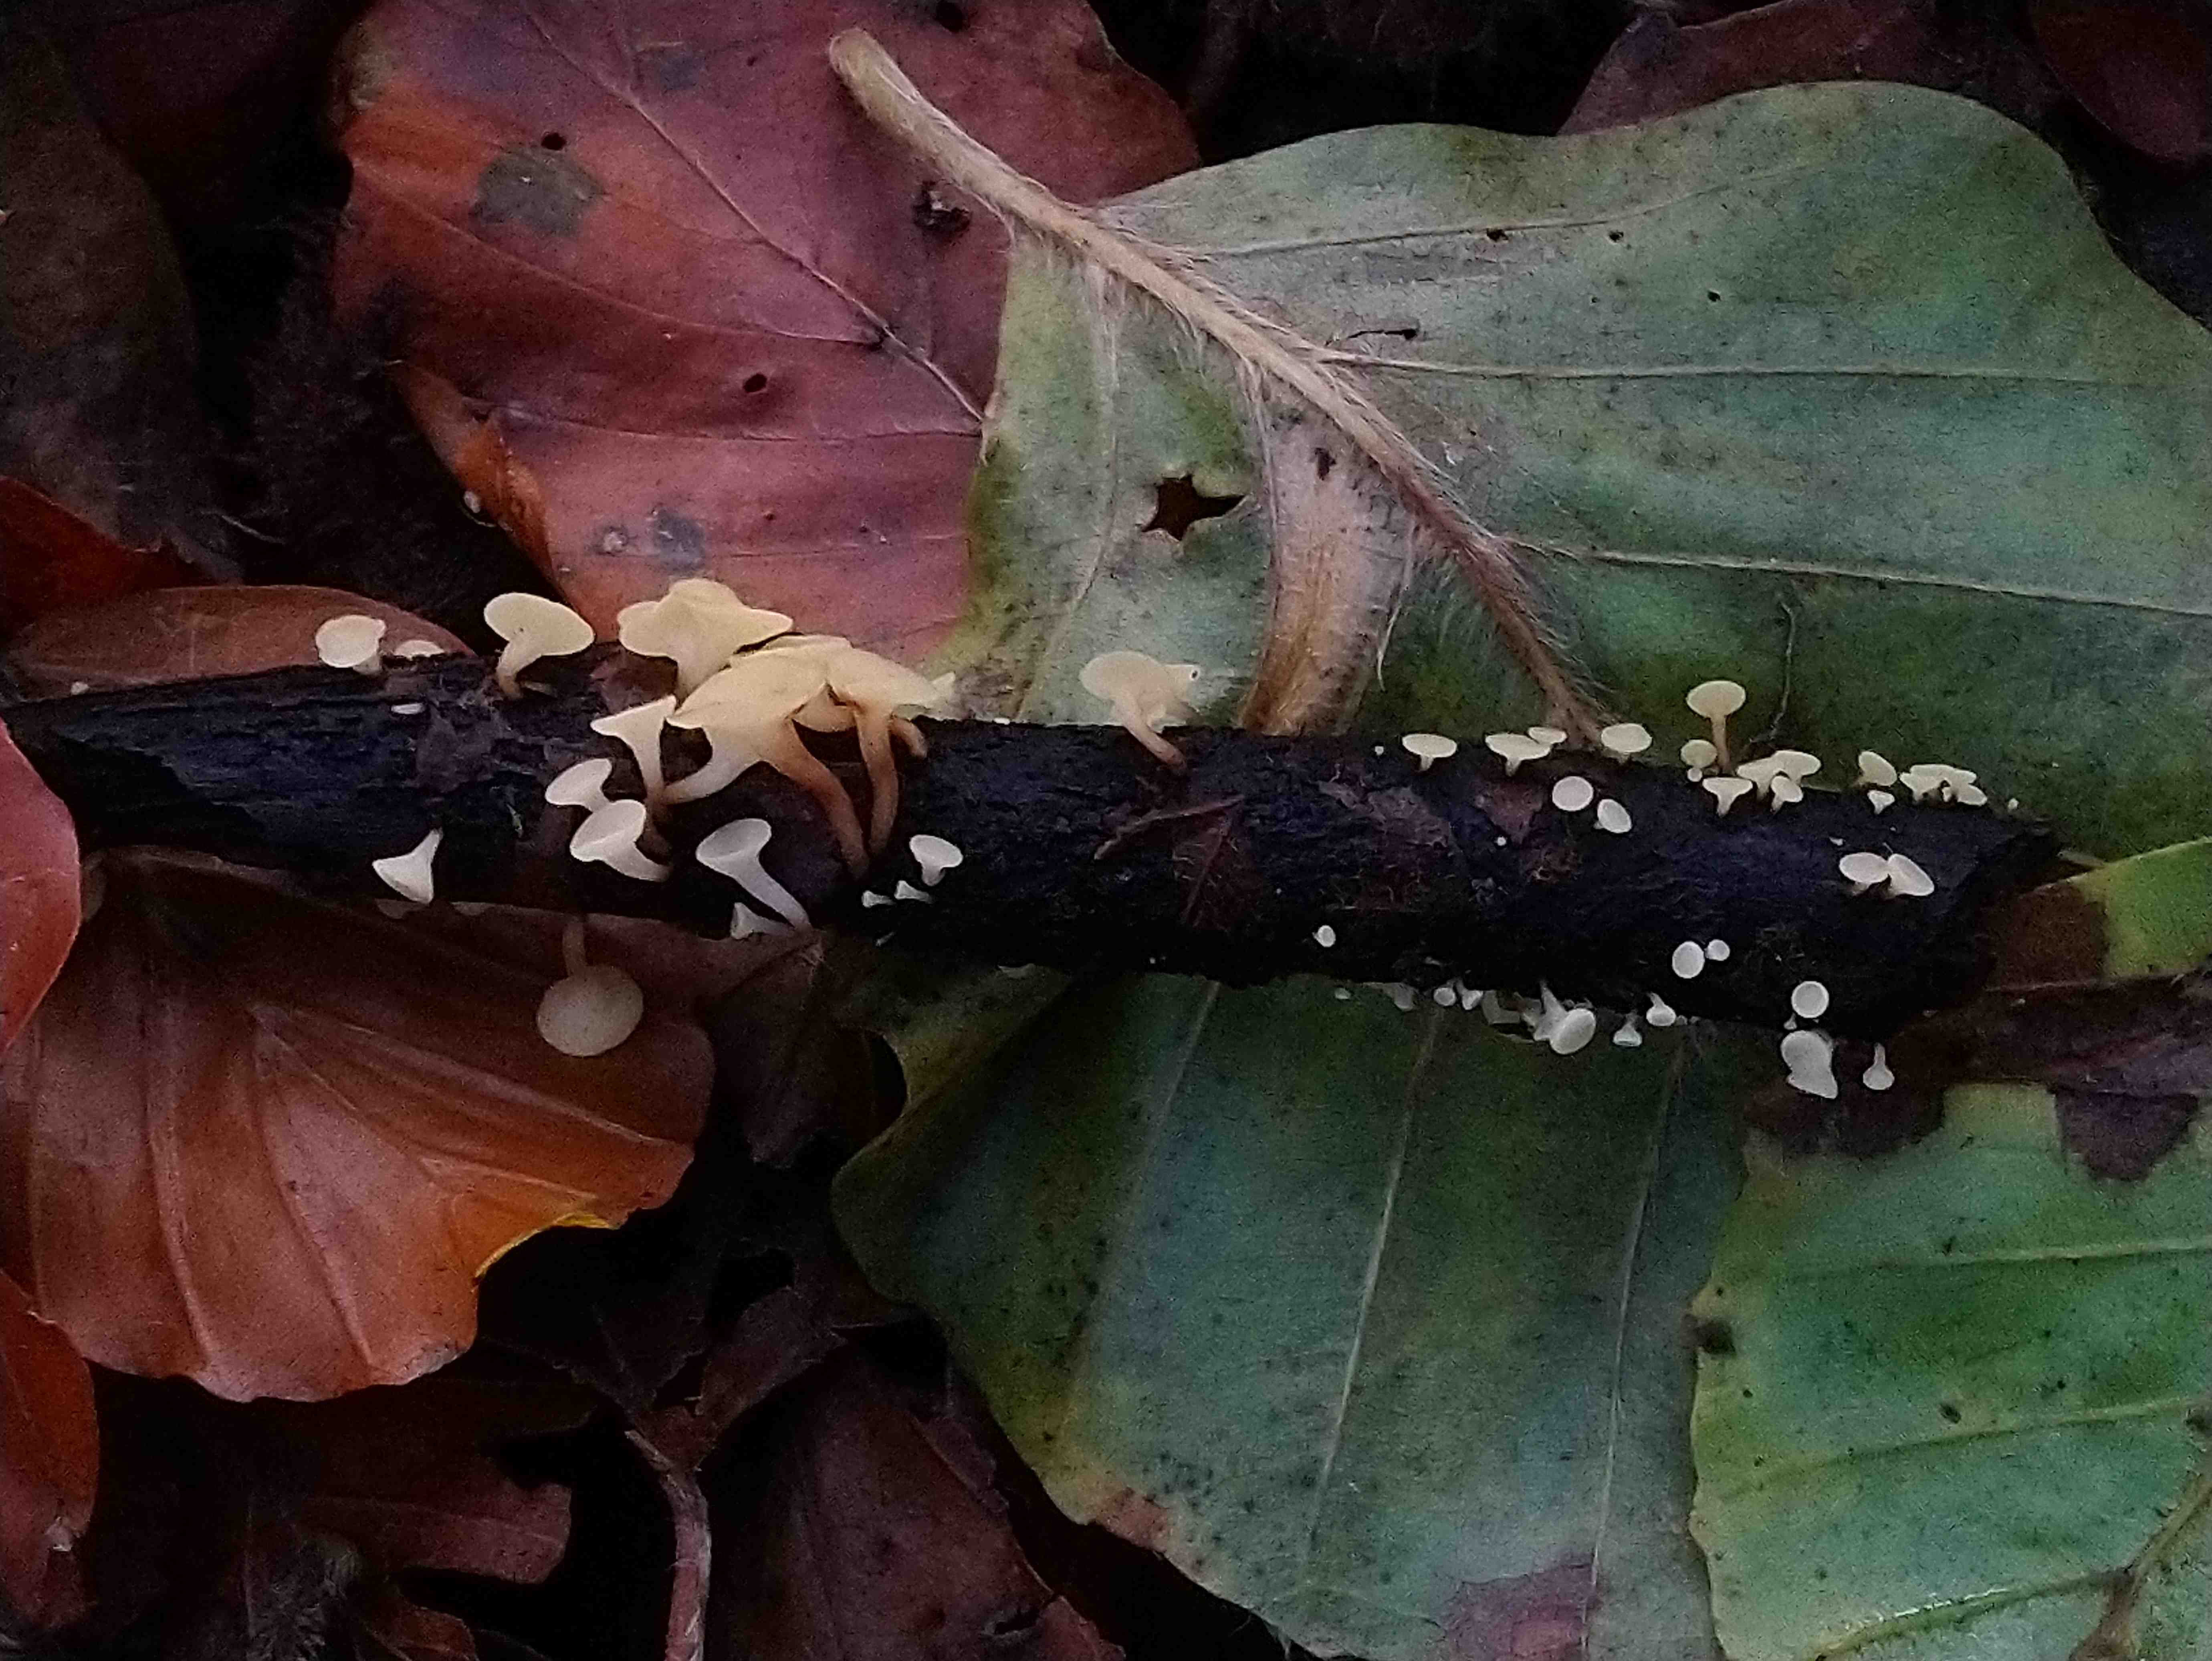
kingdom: Fungi
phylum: Ascomycota
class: Leotiomycetes
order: Helotiales
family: Helotiaceae
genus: Hymenoscyphus
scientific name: Hymenoscyphus serotinus
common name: krumsporet stilkskive
